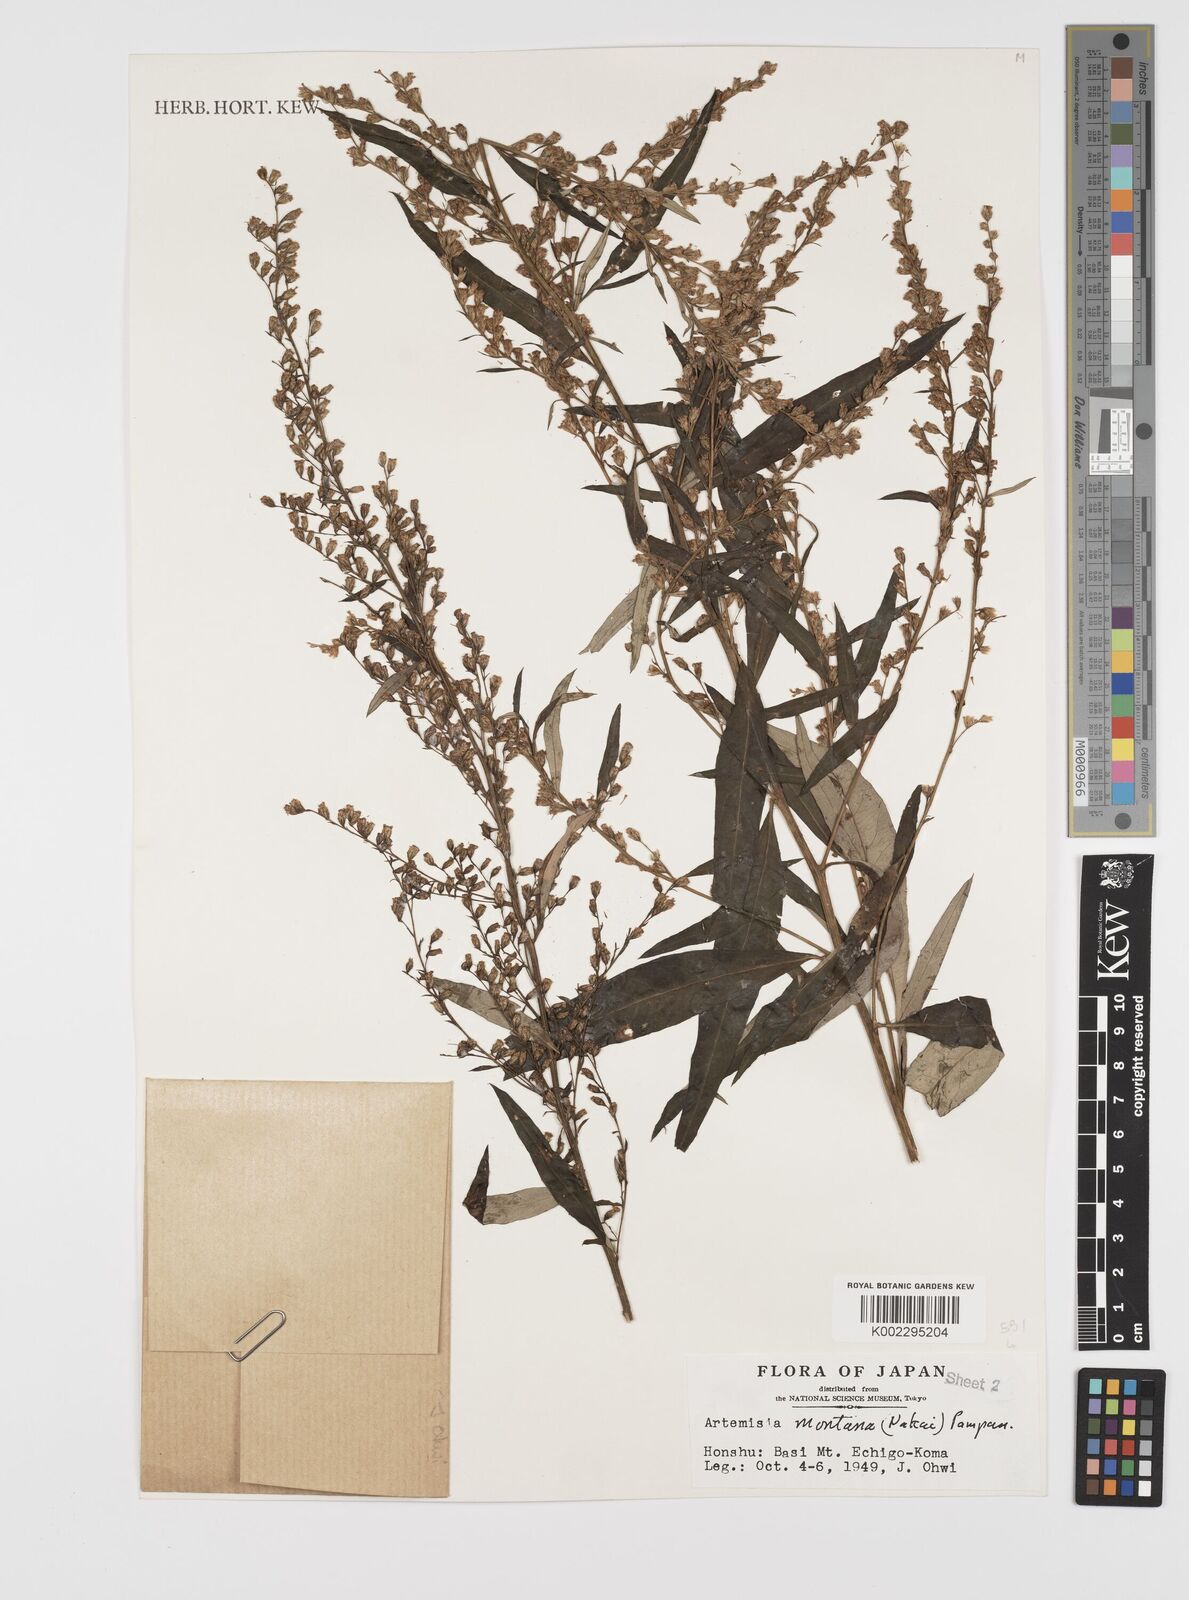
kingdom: Plantae
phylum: Tracheophyta
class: Magnoliopsida
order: Asterales
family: Asteraceae
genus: Artemisia
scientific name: Artemisia montana
